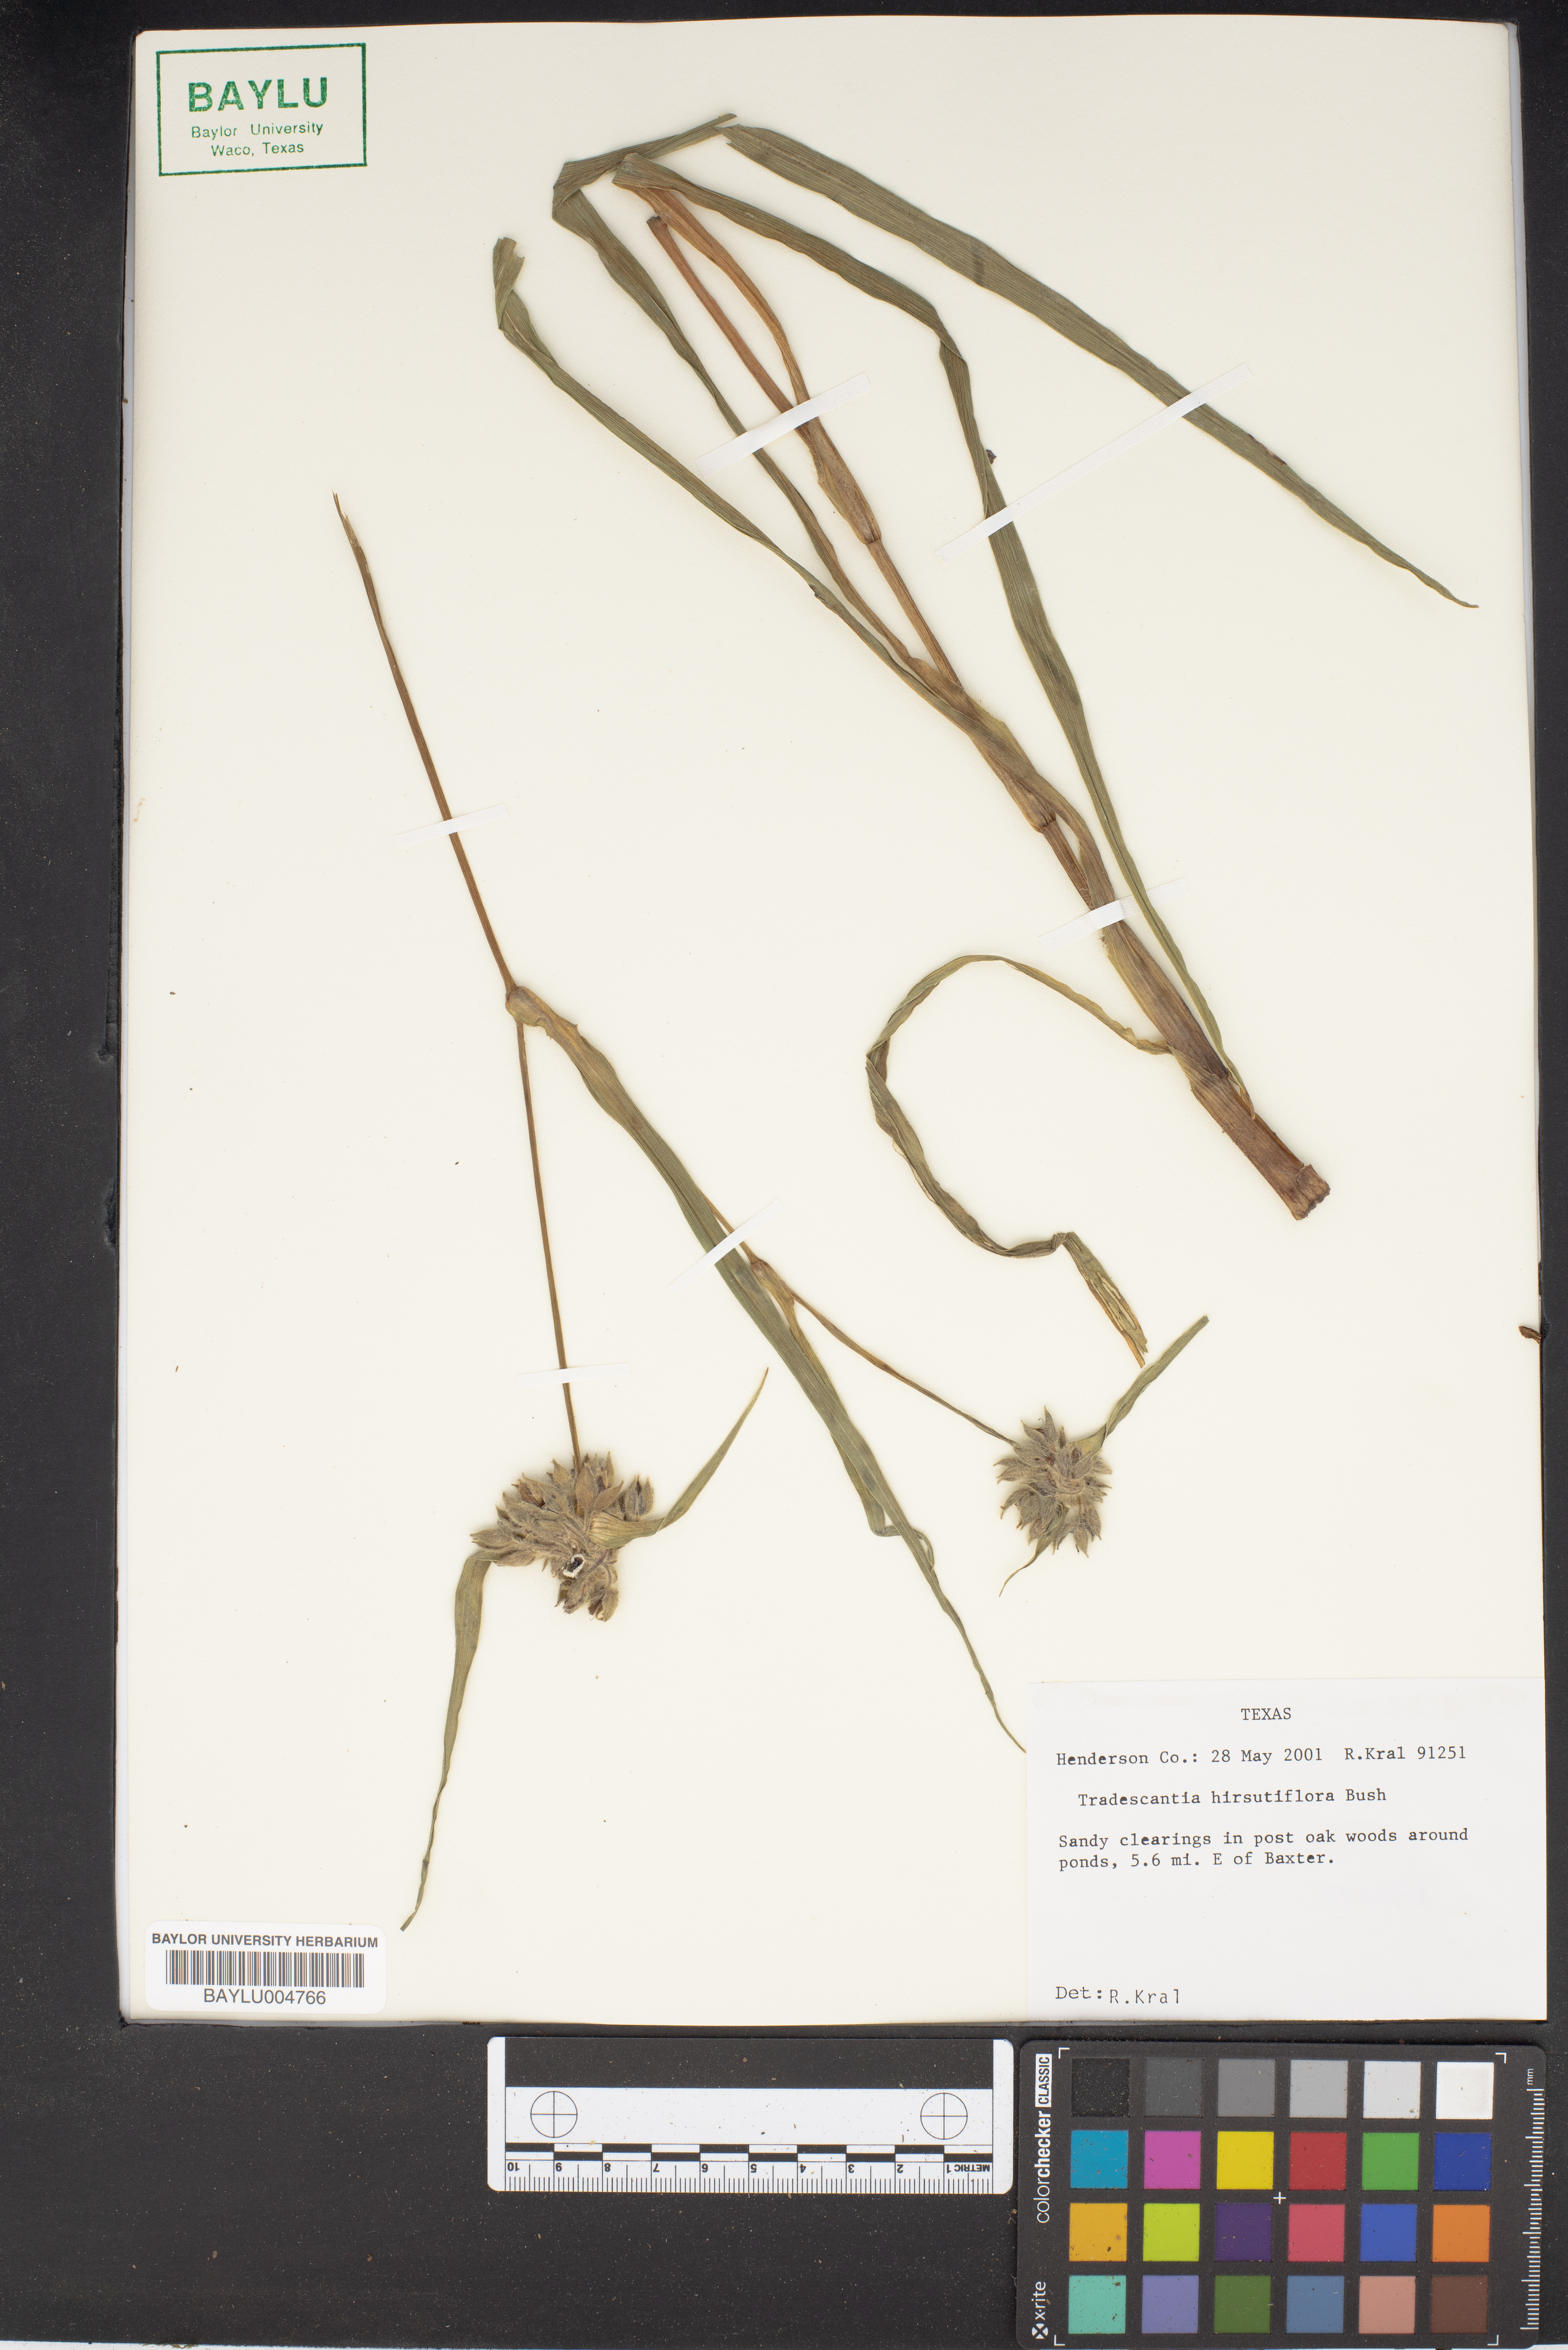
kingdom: Plantae
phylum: Tracheophyta
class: Liliopsida
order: Commelinales
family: Commelinaceae
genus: Tradescantia
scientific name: Tradescantia hirsutiflora
